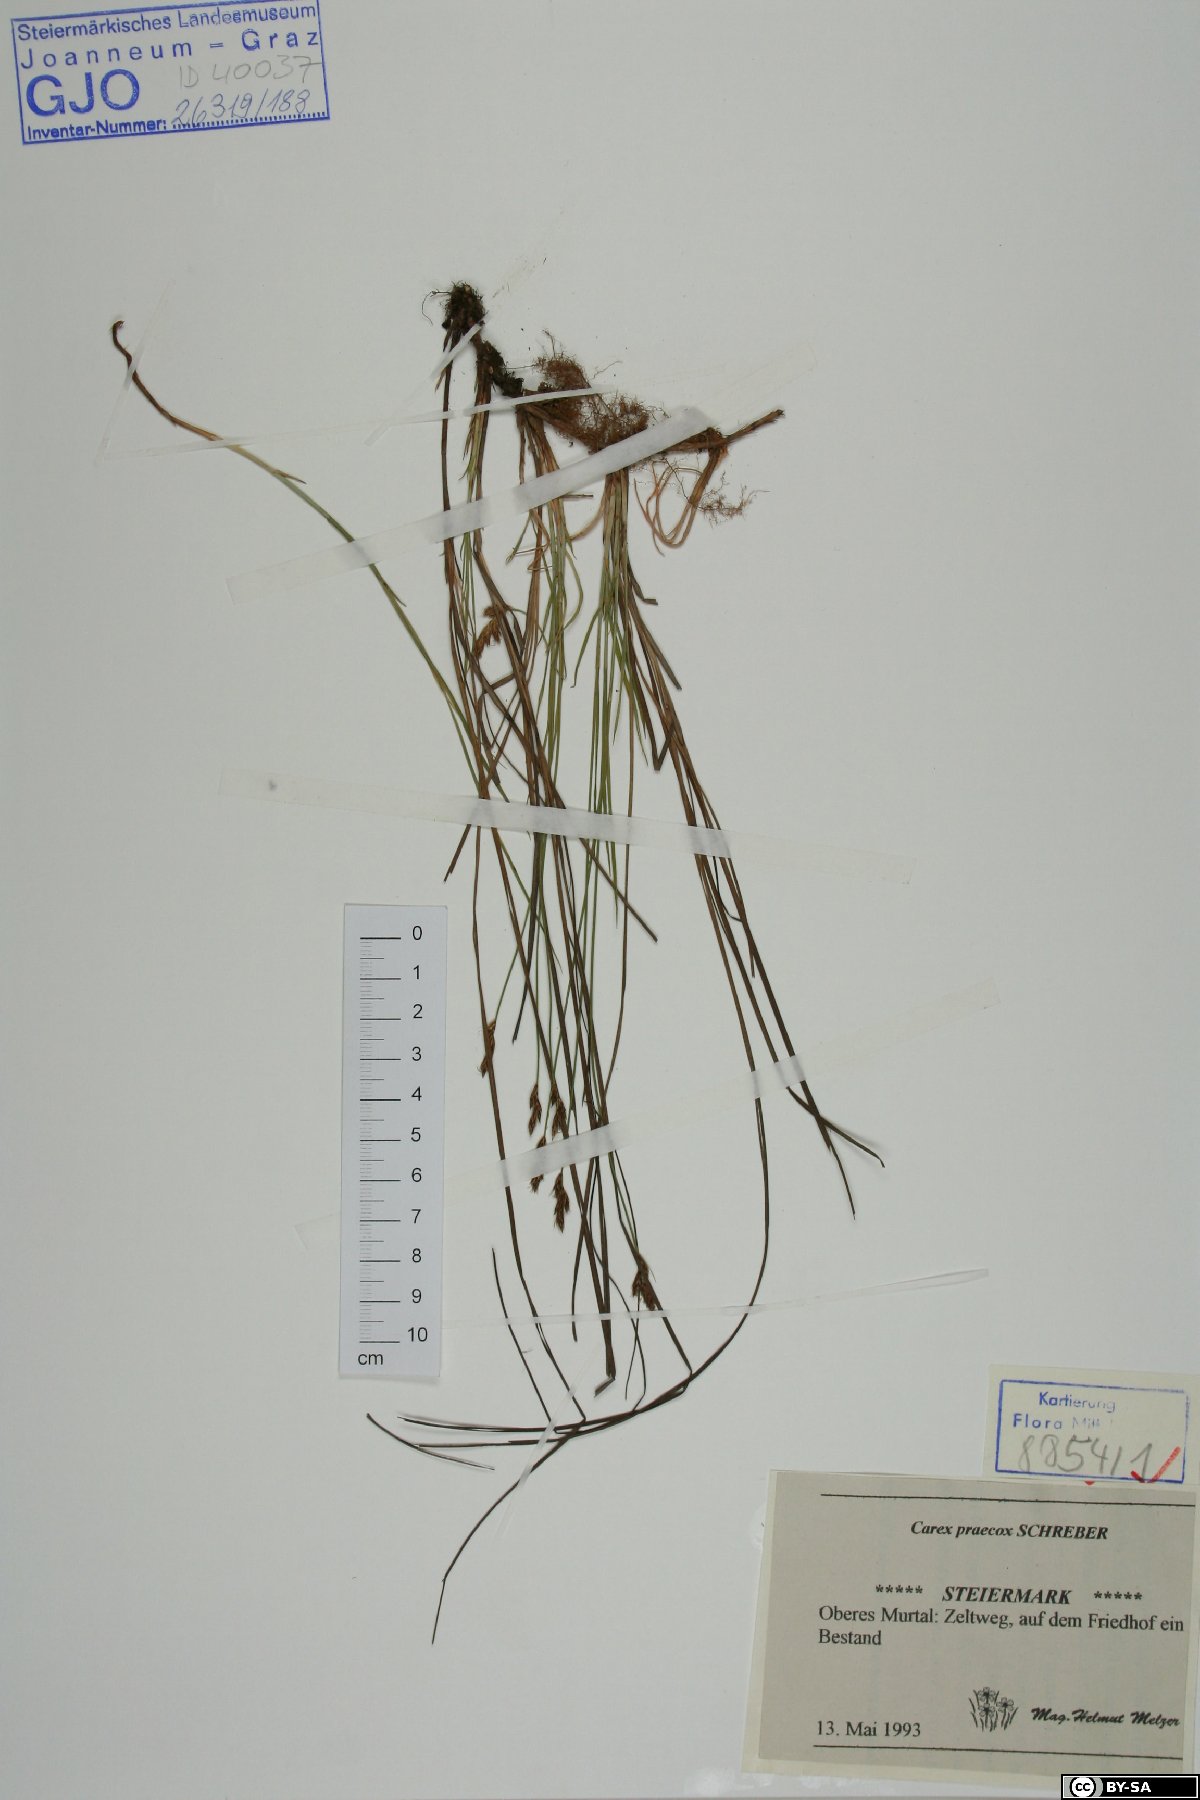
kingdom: Plantae
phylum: Tracheophyta
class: Liliopsida
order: Poales
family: Cyperaceae
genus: Carex
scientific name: Carex praecox
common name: Early sedge
